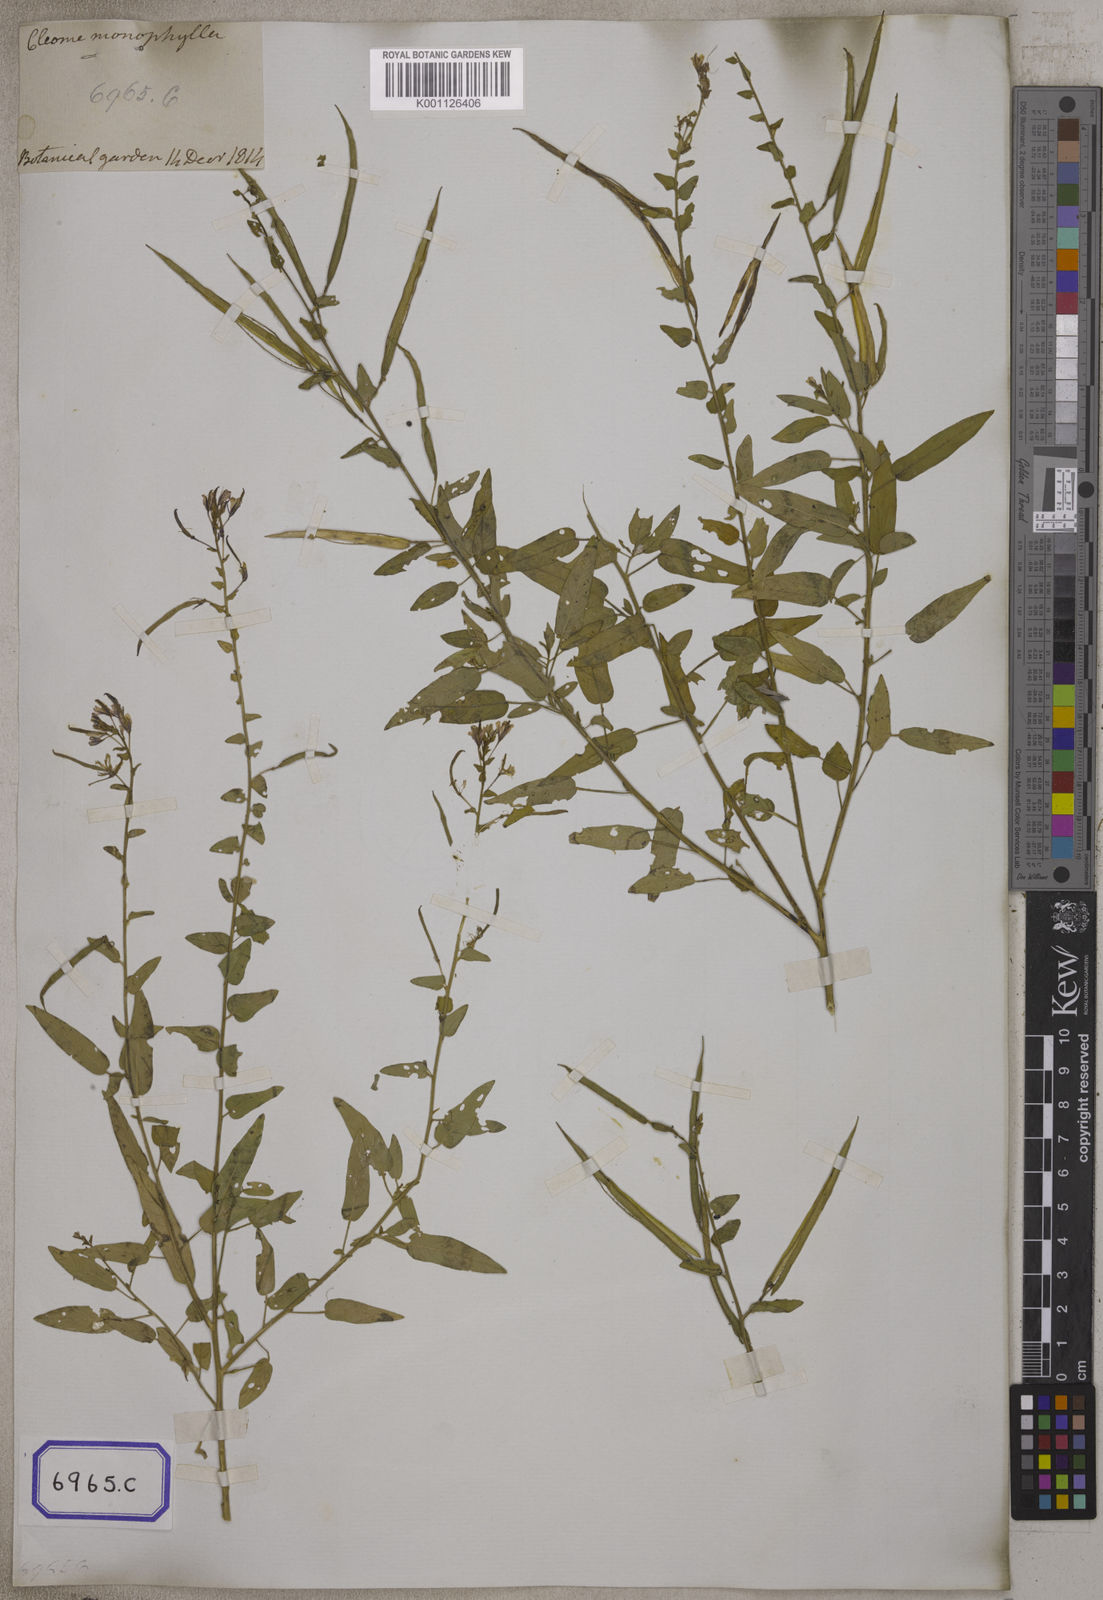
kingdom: Plantae
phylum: Tracheophyta
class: Magnoliopsida
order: Brassicales
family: Cleomaceae
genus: Cleome
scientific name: Cleome
